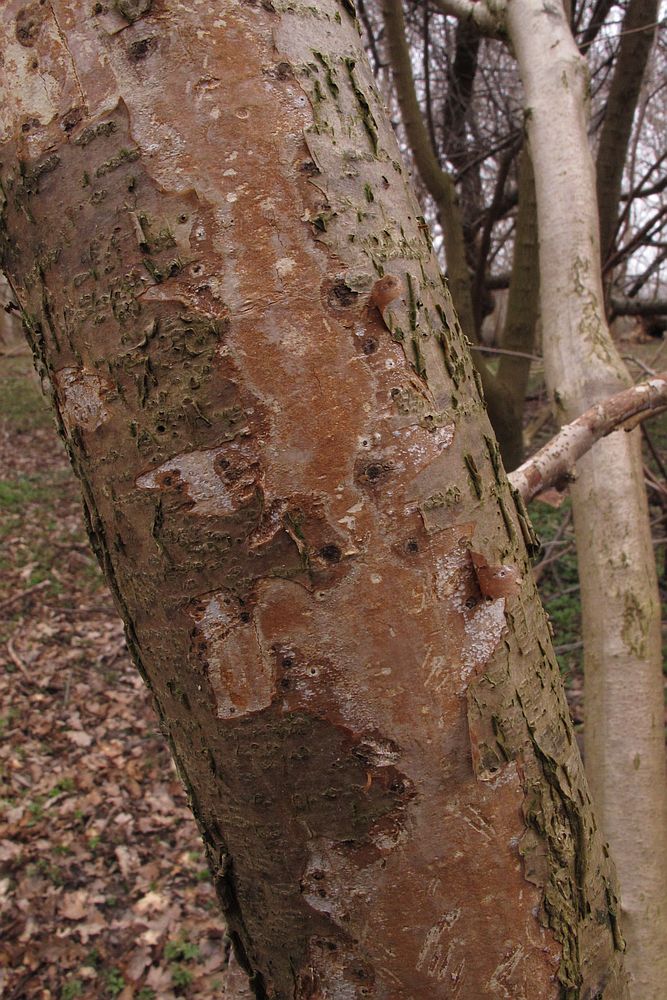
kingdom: Fungi
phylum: Basidiomycota
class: Agaricomycetes
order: Corticiales
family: Vuilleminiaceae
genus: Vuilleminia
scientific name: Vuilleminia coryli
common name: hassel-barksprænger
